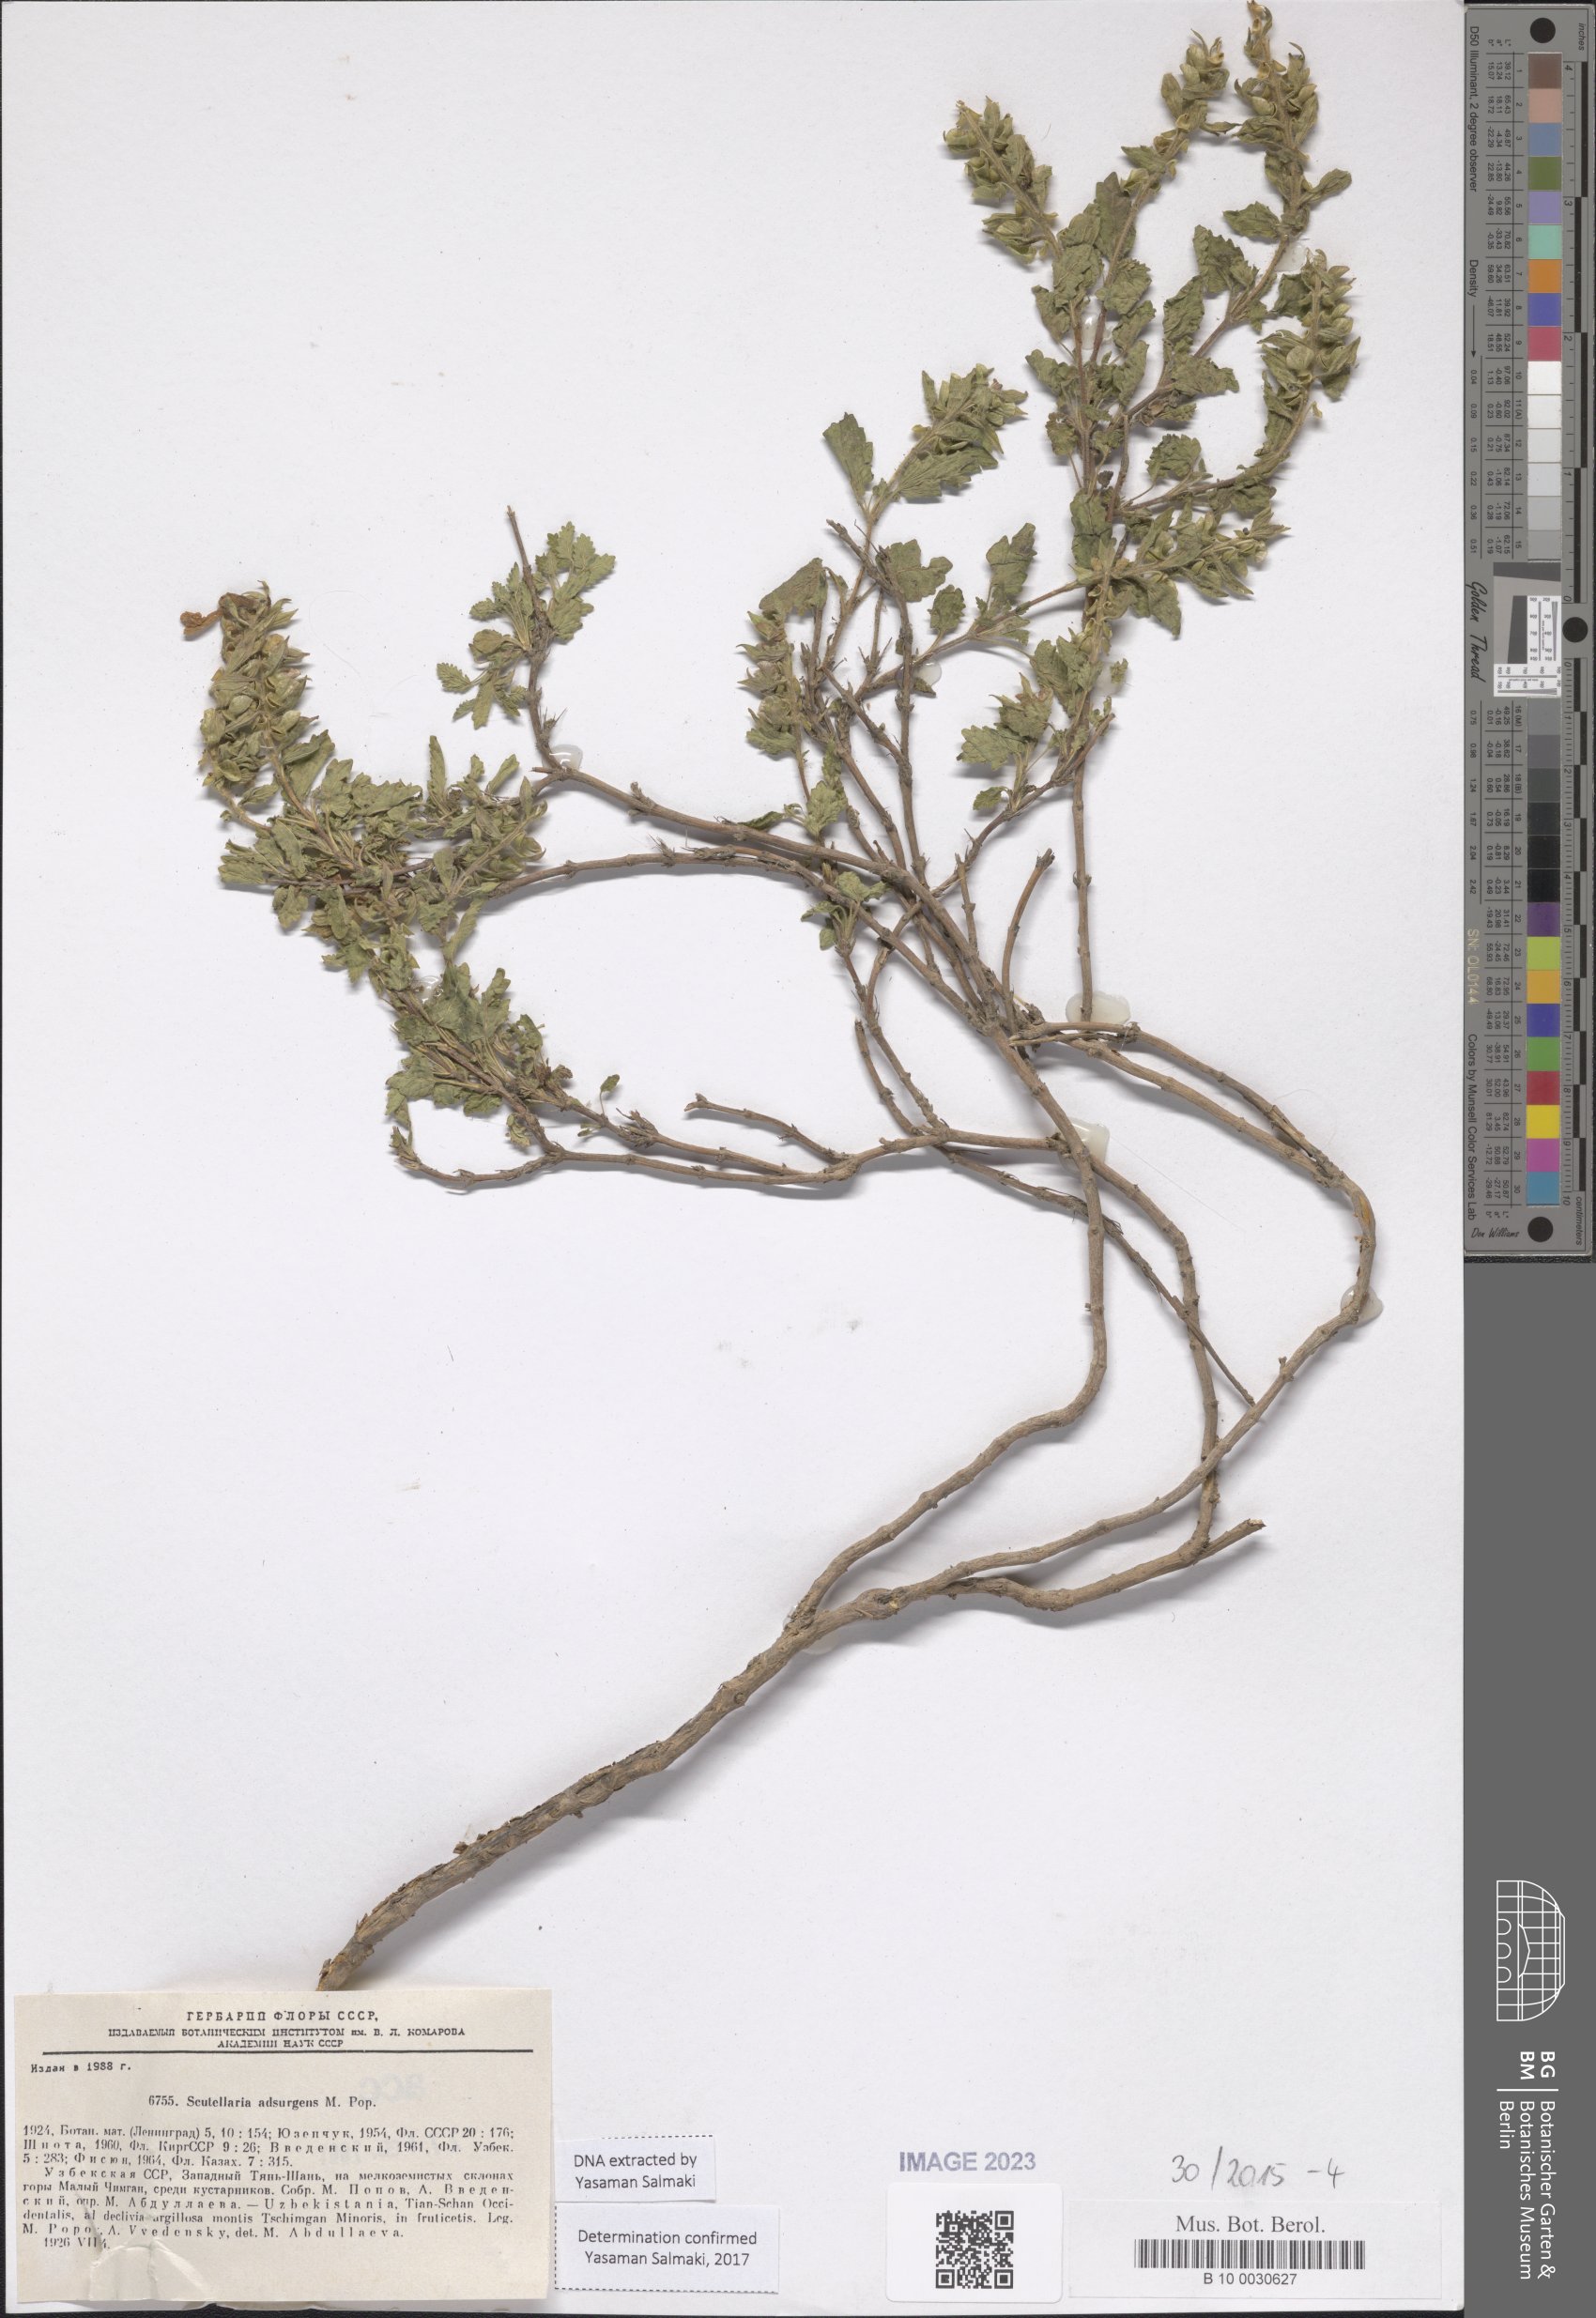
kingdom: Plantae
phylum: Tracheophyta
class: Magnoliopsida
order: Lamiales
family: Lamiaceae
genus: Scutellaria
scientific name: Scutellaria
